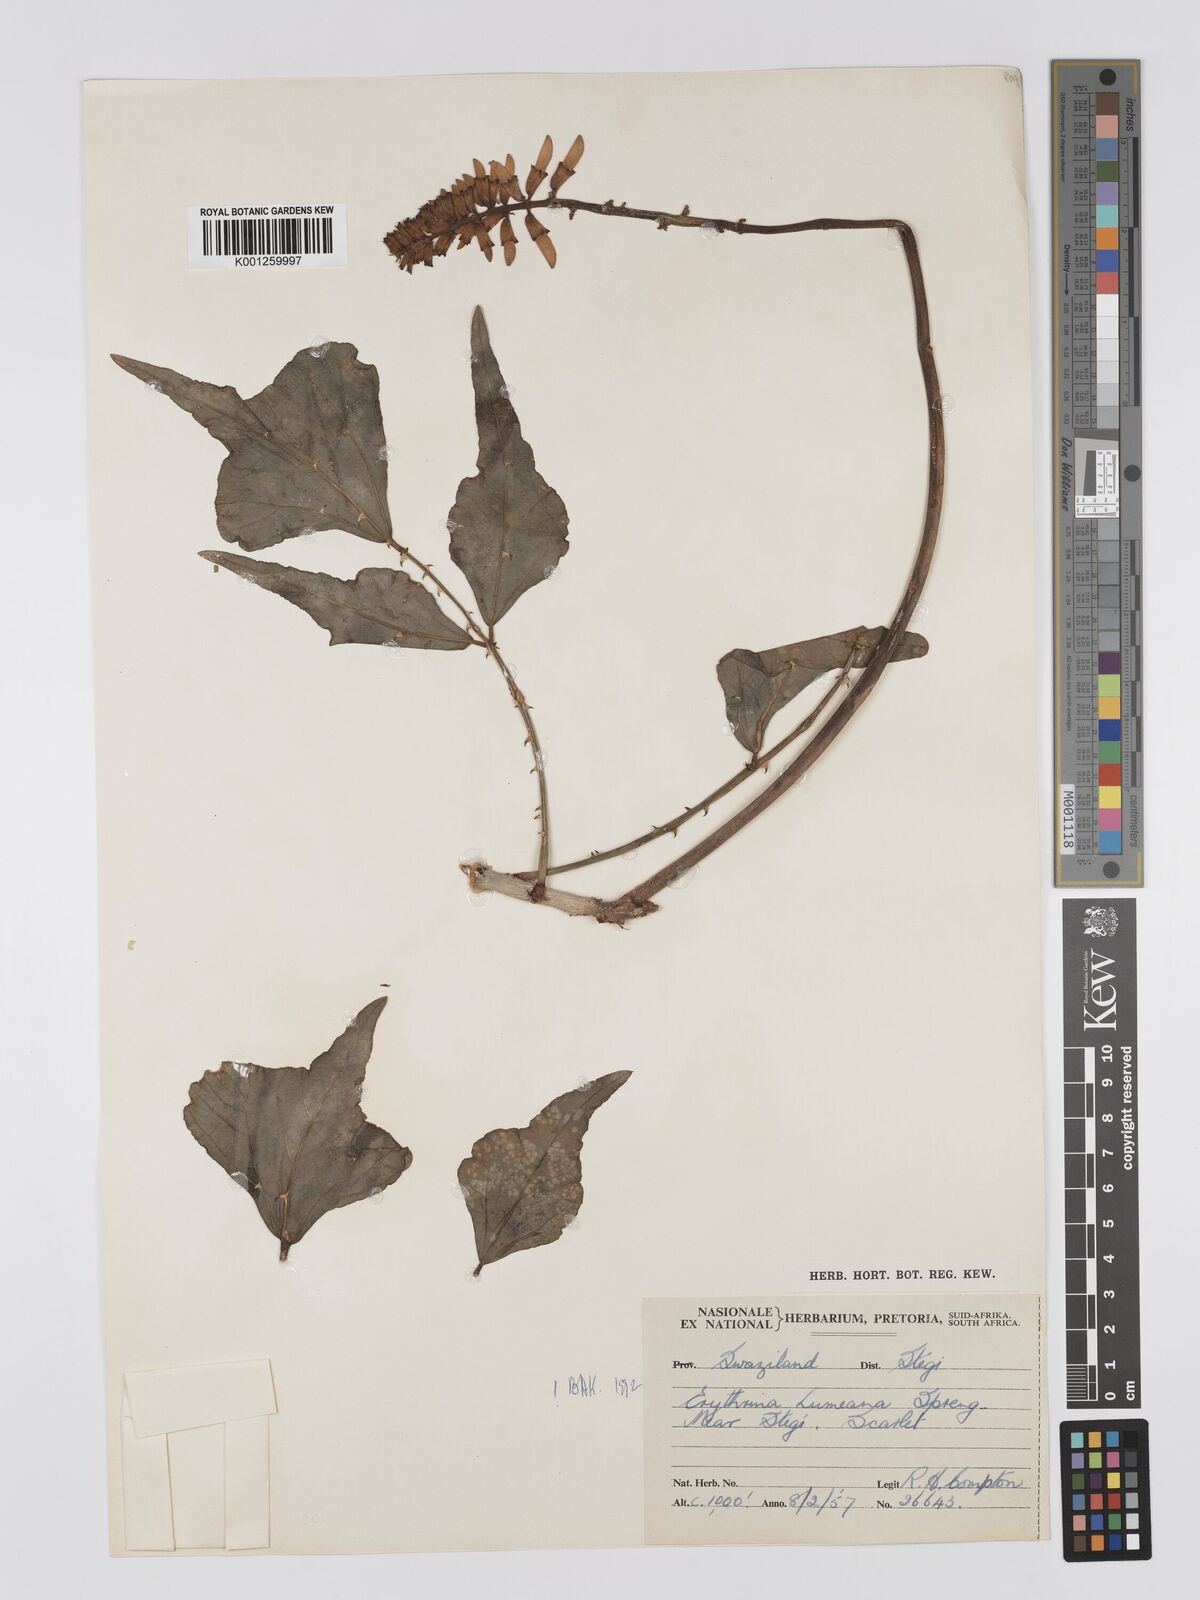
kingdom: Plantae
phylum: Tracheophyta
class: Magnoliopsida
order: Fabales
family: Fabaceae
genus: Erythrina
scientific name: Erythrina humeana
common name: Dwarf coral tree
